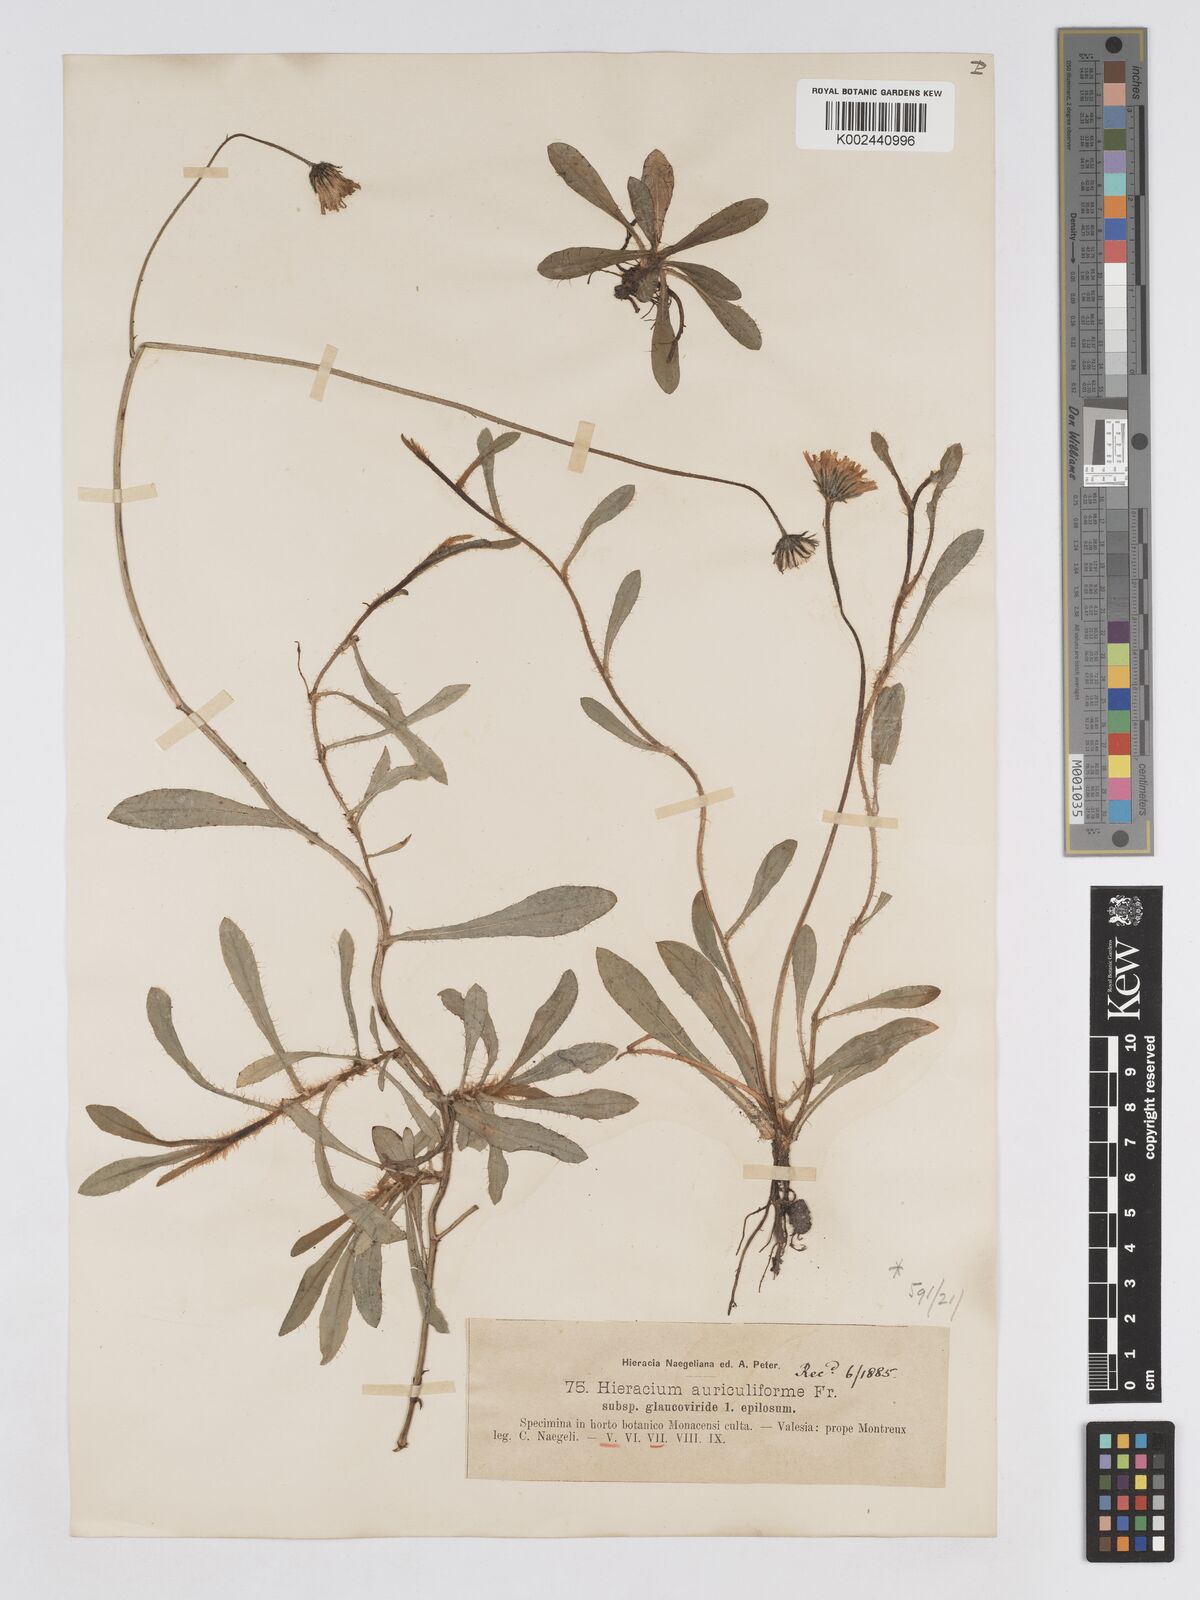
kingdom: Plantae
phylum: Tracheophyta
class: Magnoliopsida
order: Asterales
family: Asteraceae
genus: Pilosella
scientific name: Pilosella schultesii
